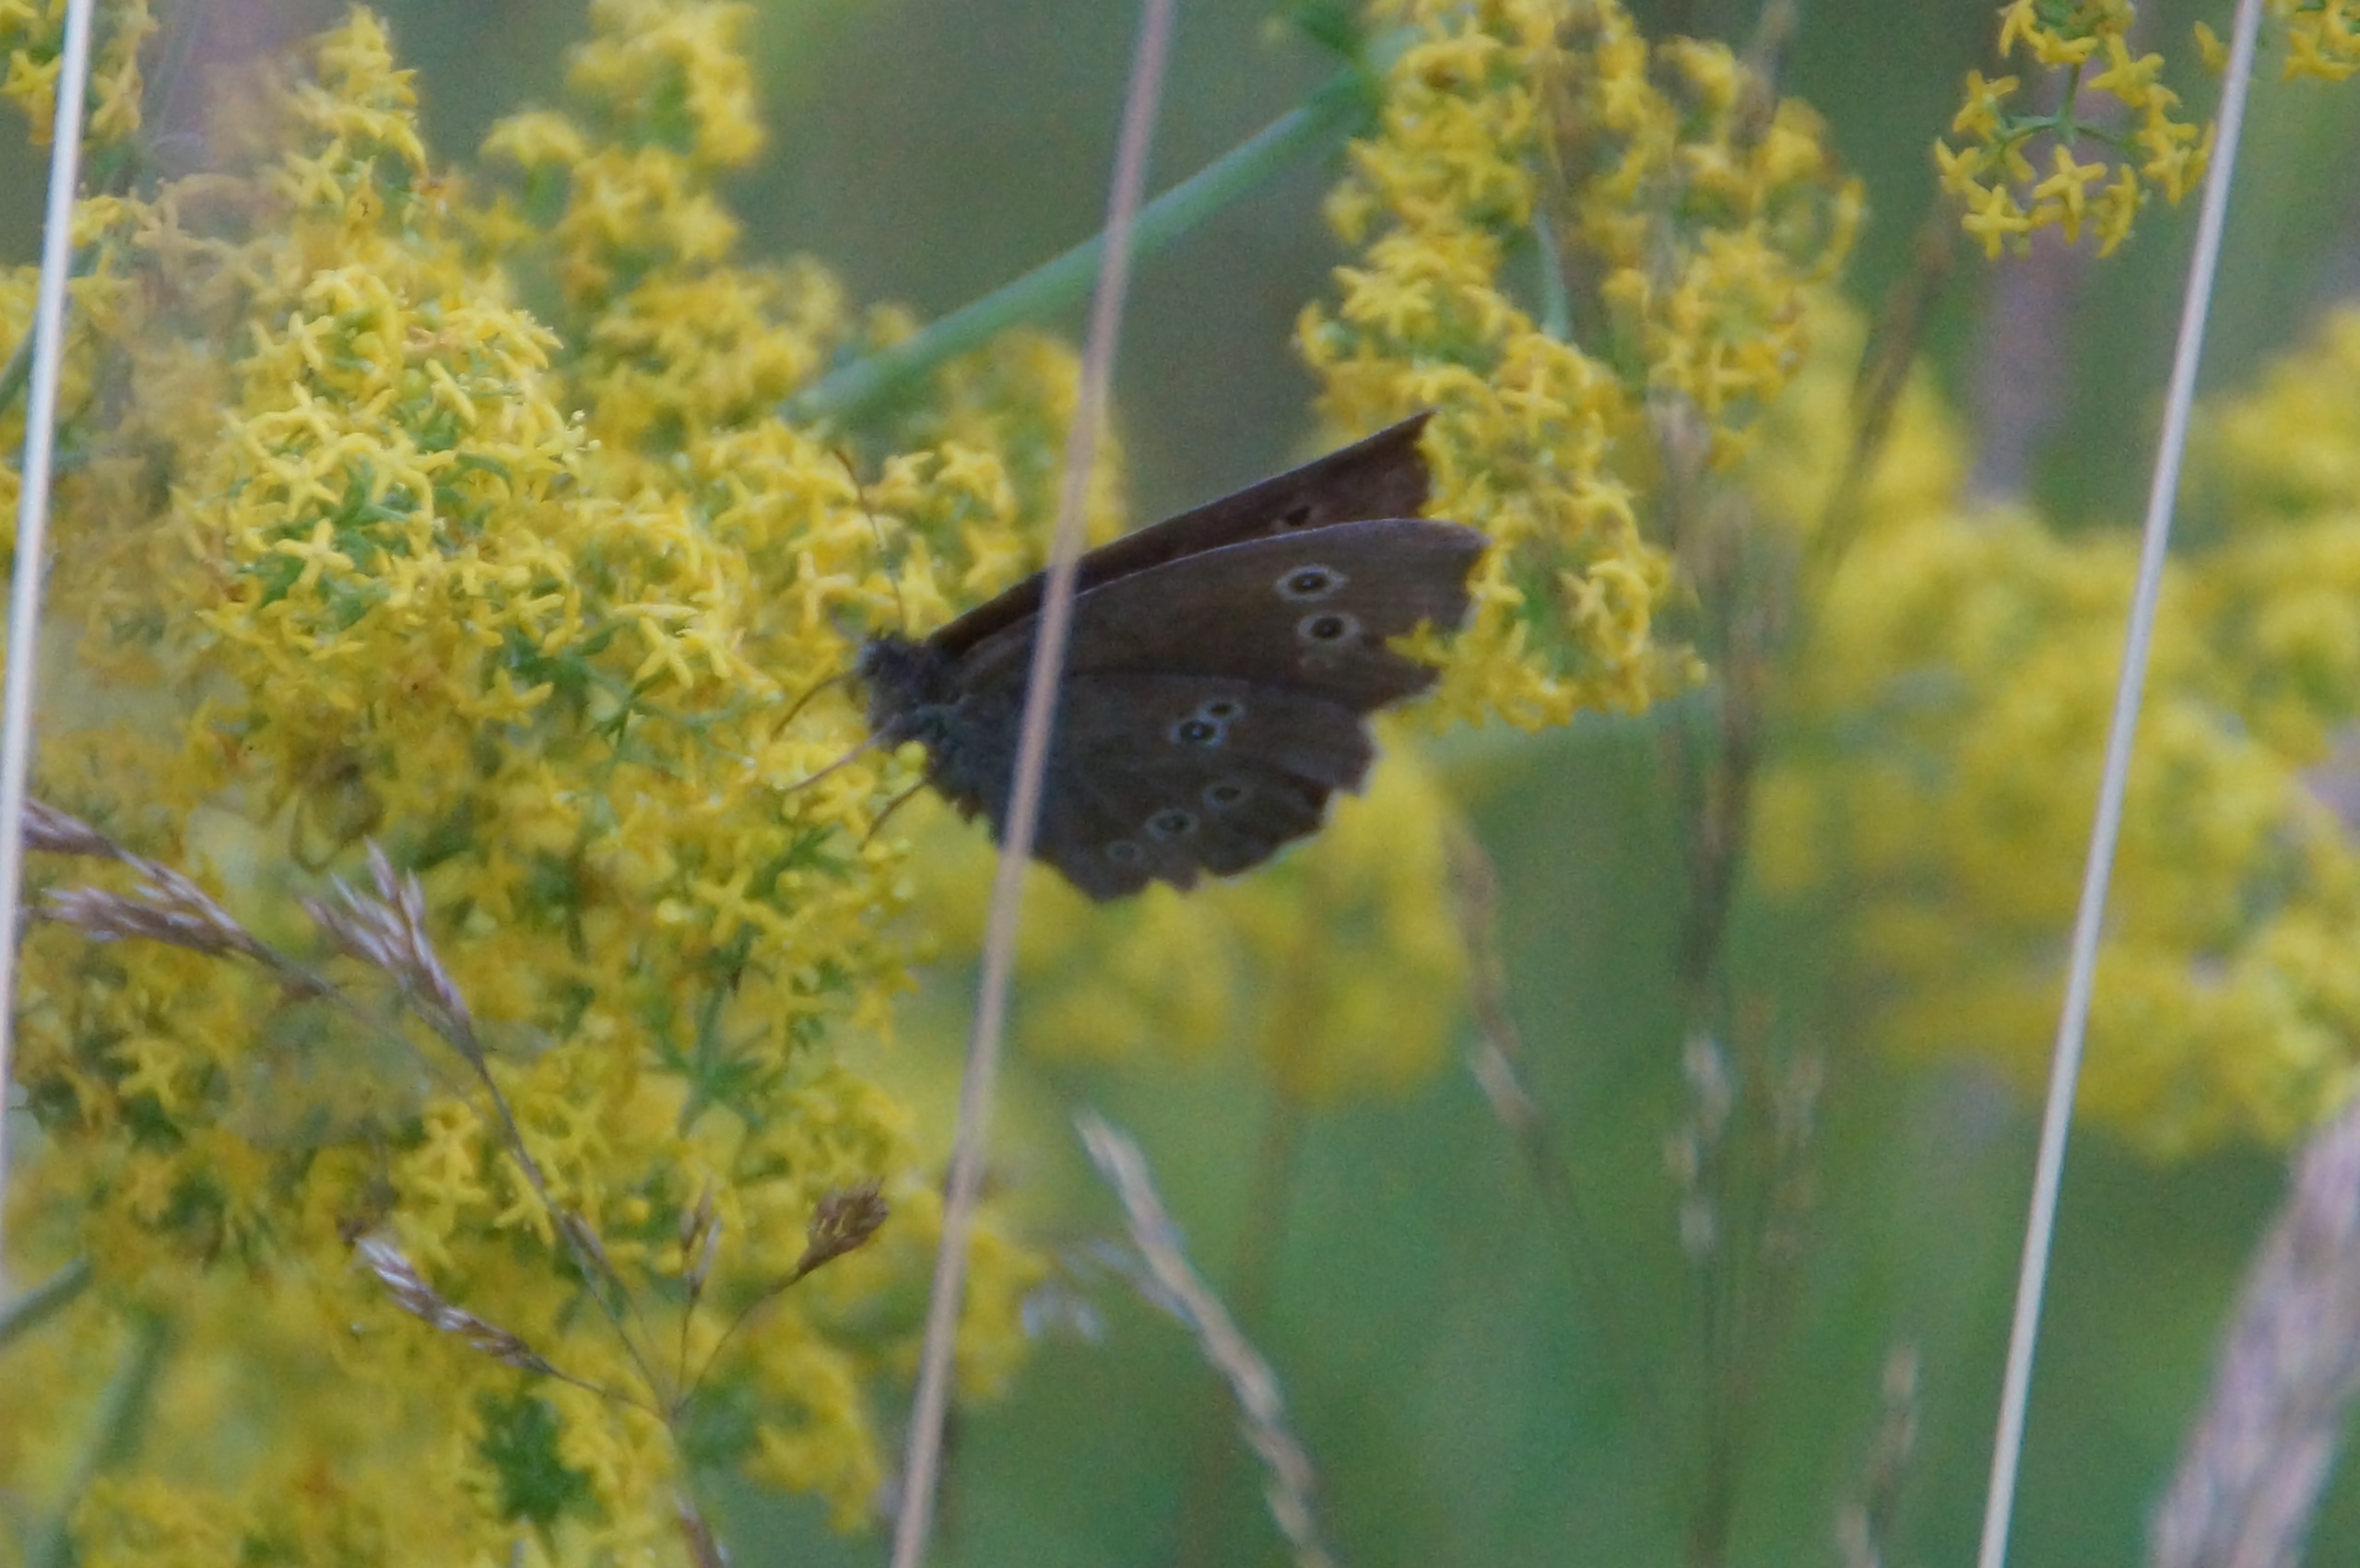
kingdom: Animalia
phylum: Arthropoda
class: Insecta
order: Lepidoptera
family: Nymphalidae
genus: Aphantopus
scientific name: Aphantopus hyperantus
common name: Engrandøje
